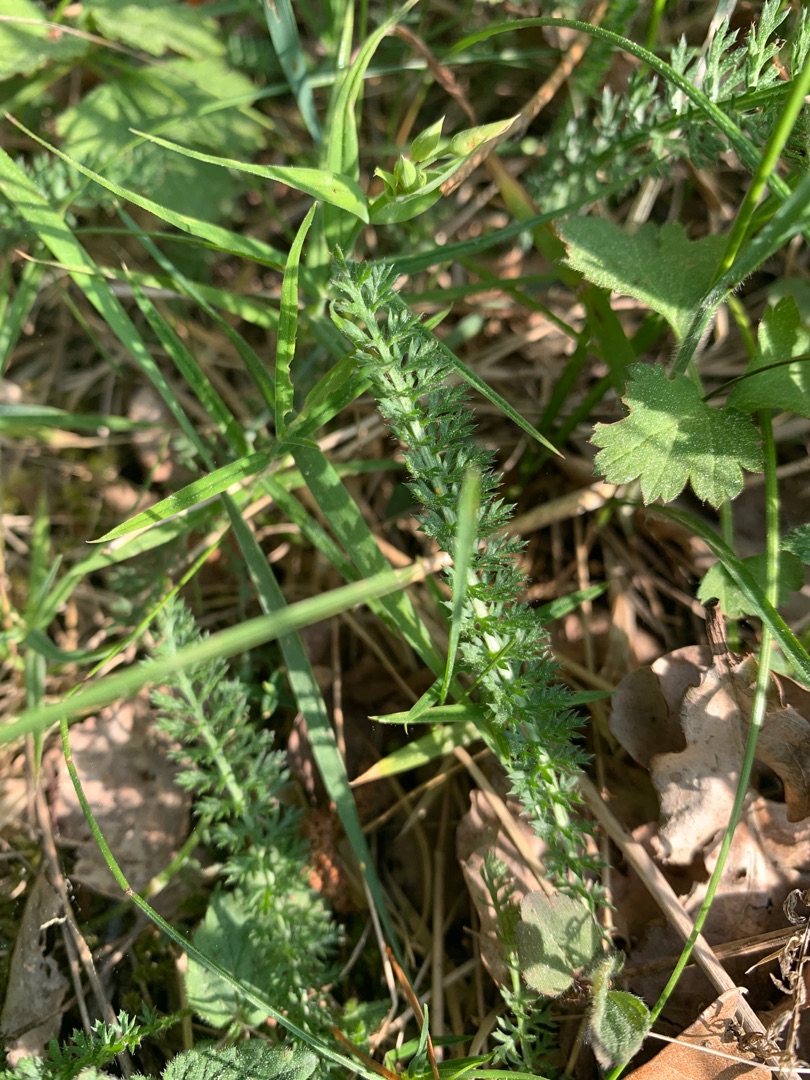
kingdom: Plantae
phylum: Tracheophyta
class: Magnoliopsida
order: Asterales
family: Asteraceae
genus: Achillea
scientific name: Achillea millefolium
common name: Almindelig røllike
